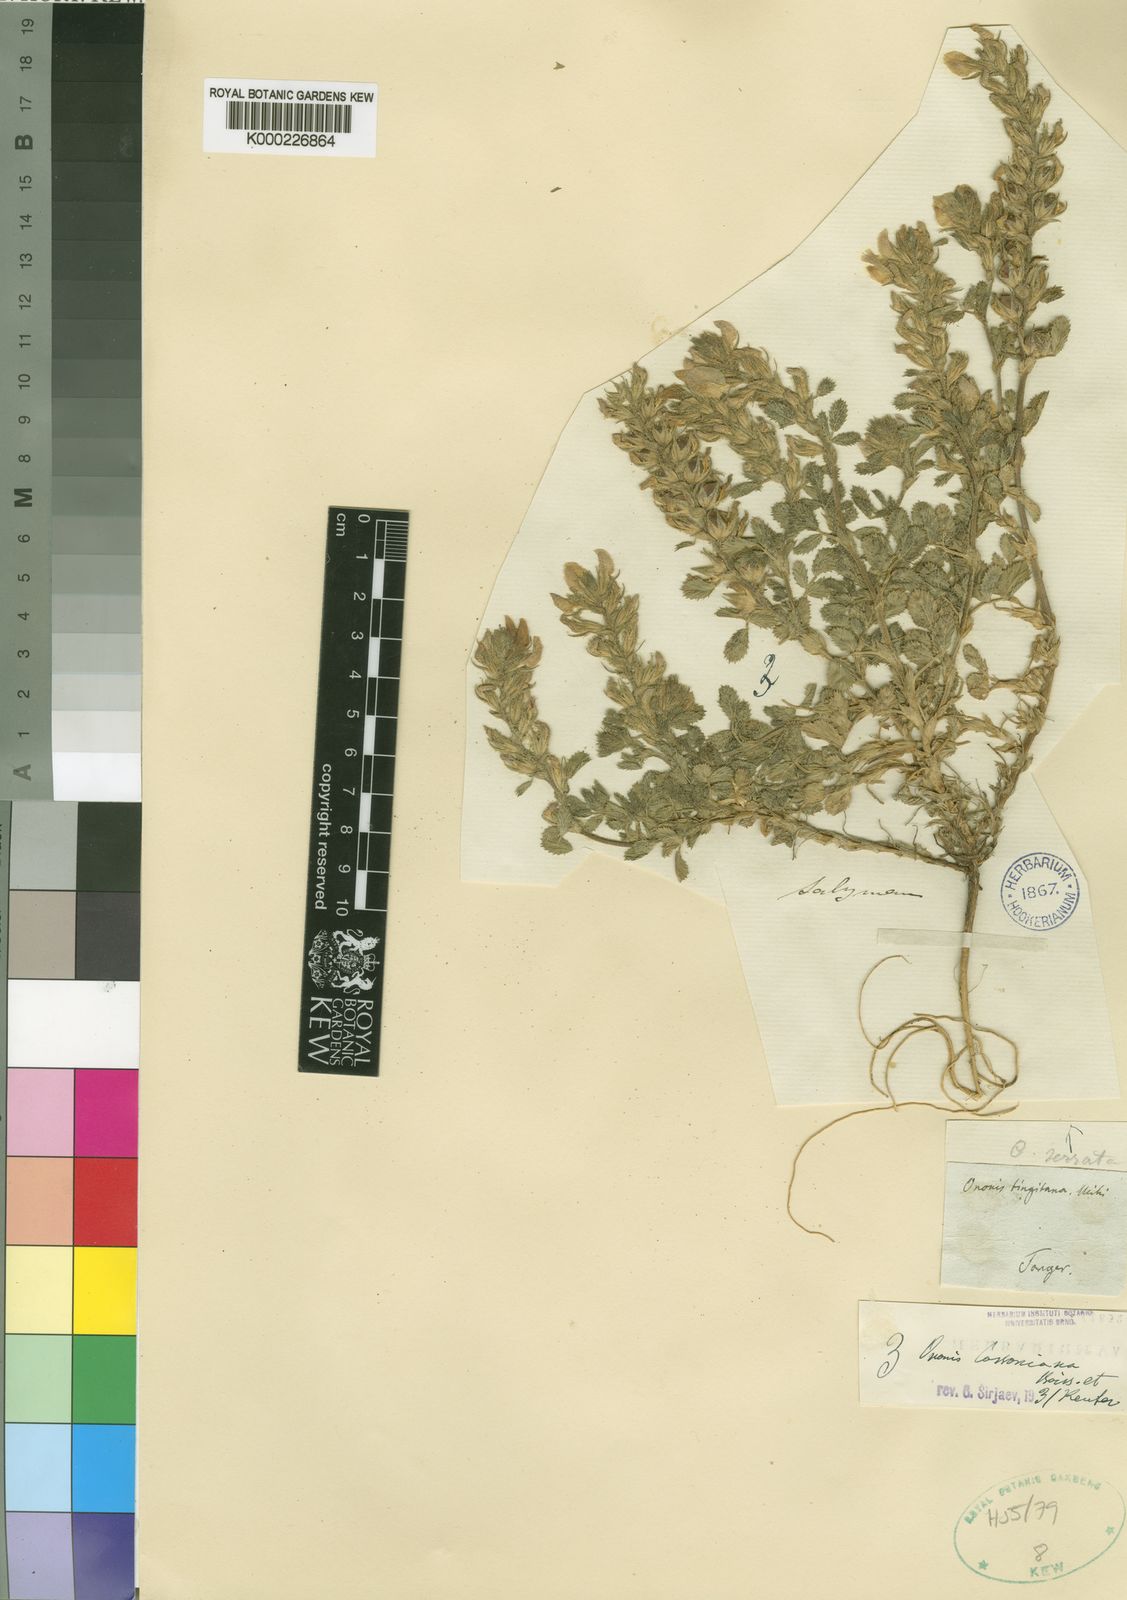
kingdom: Plantae
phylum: Tracheophyta
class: Magnoliopsida
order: Fabales
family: Fabaceae
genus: Ononis
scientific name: Ononis cossoniana
